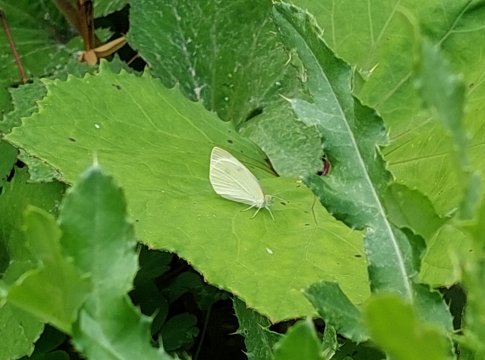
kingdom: Animalia
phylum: Arthropoda
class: Insecta
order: Lepidoptera
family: Pieridae
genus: Pieris
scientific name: Pieris rapae
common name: Cabbage White
